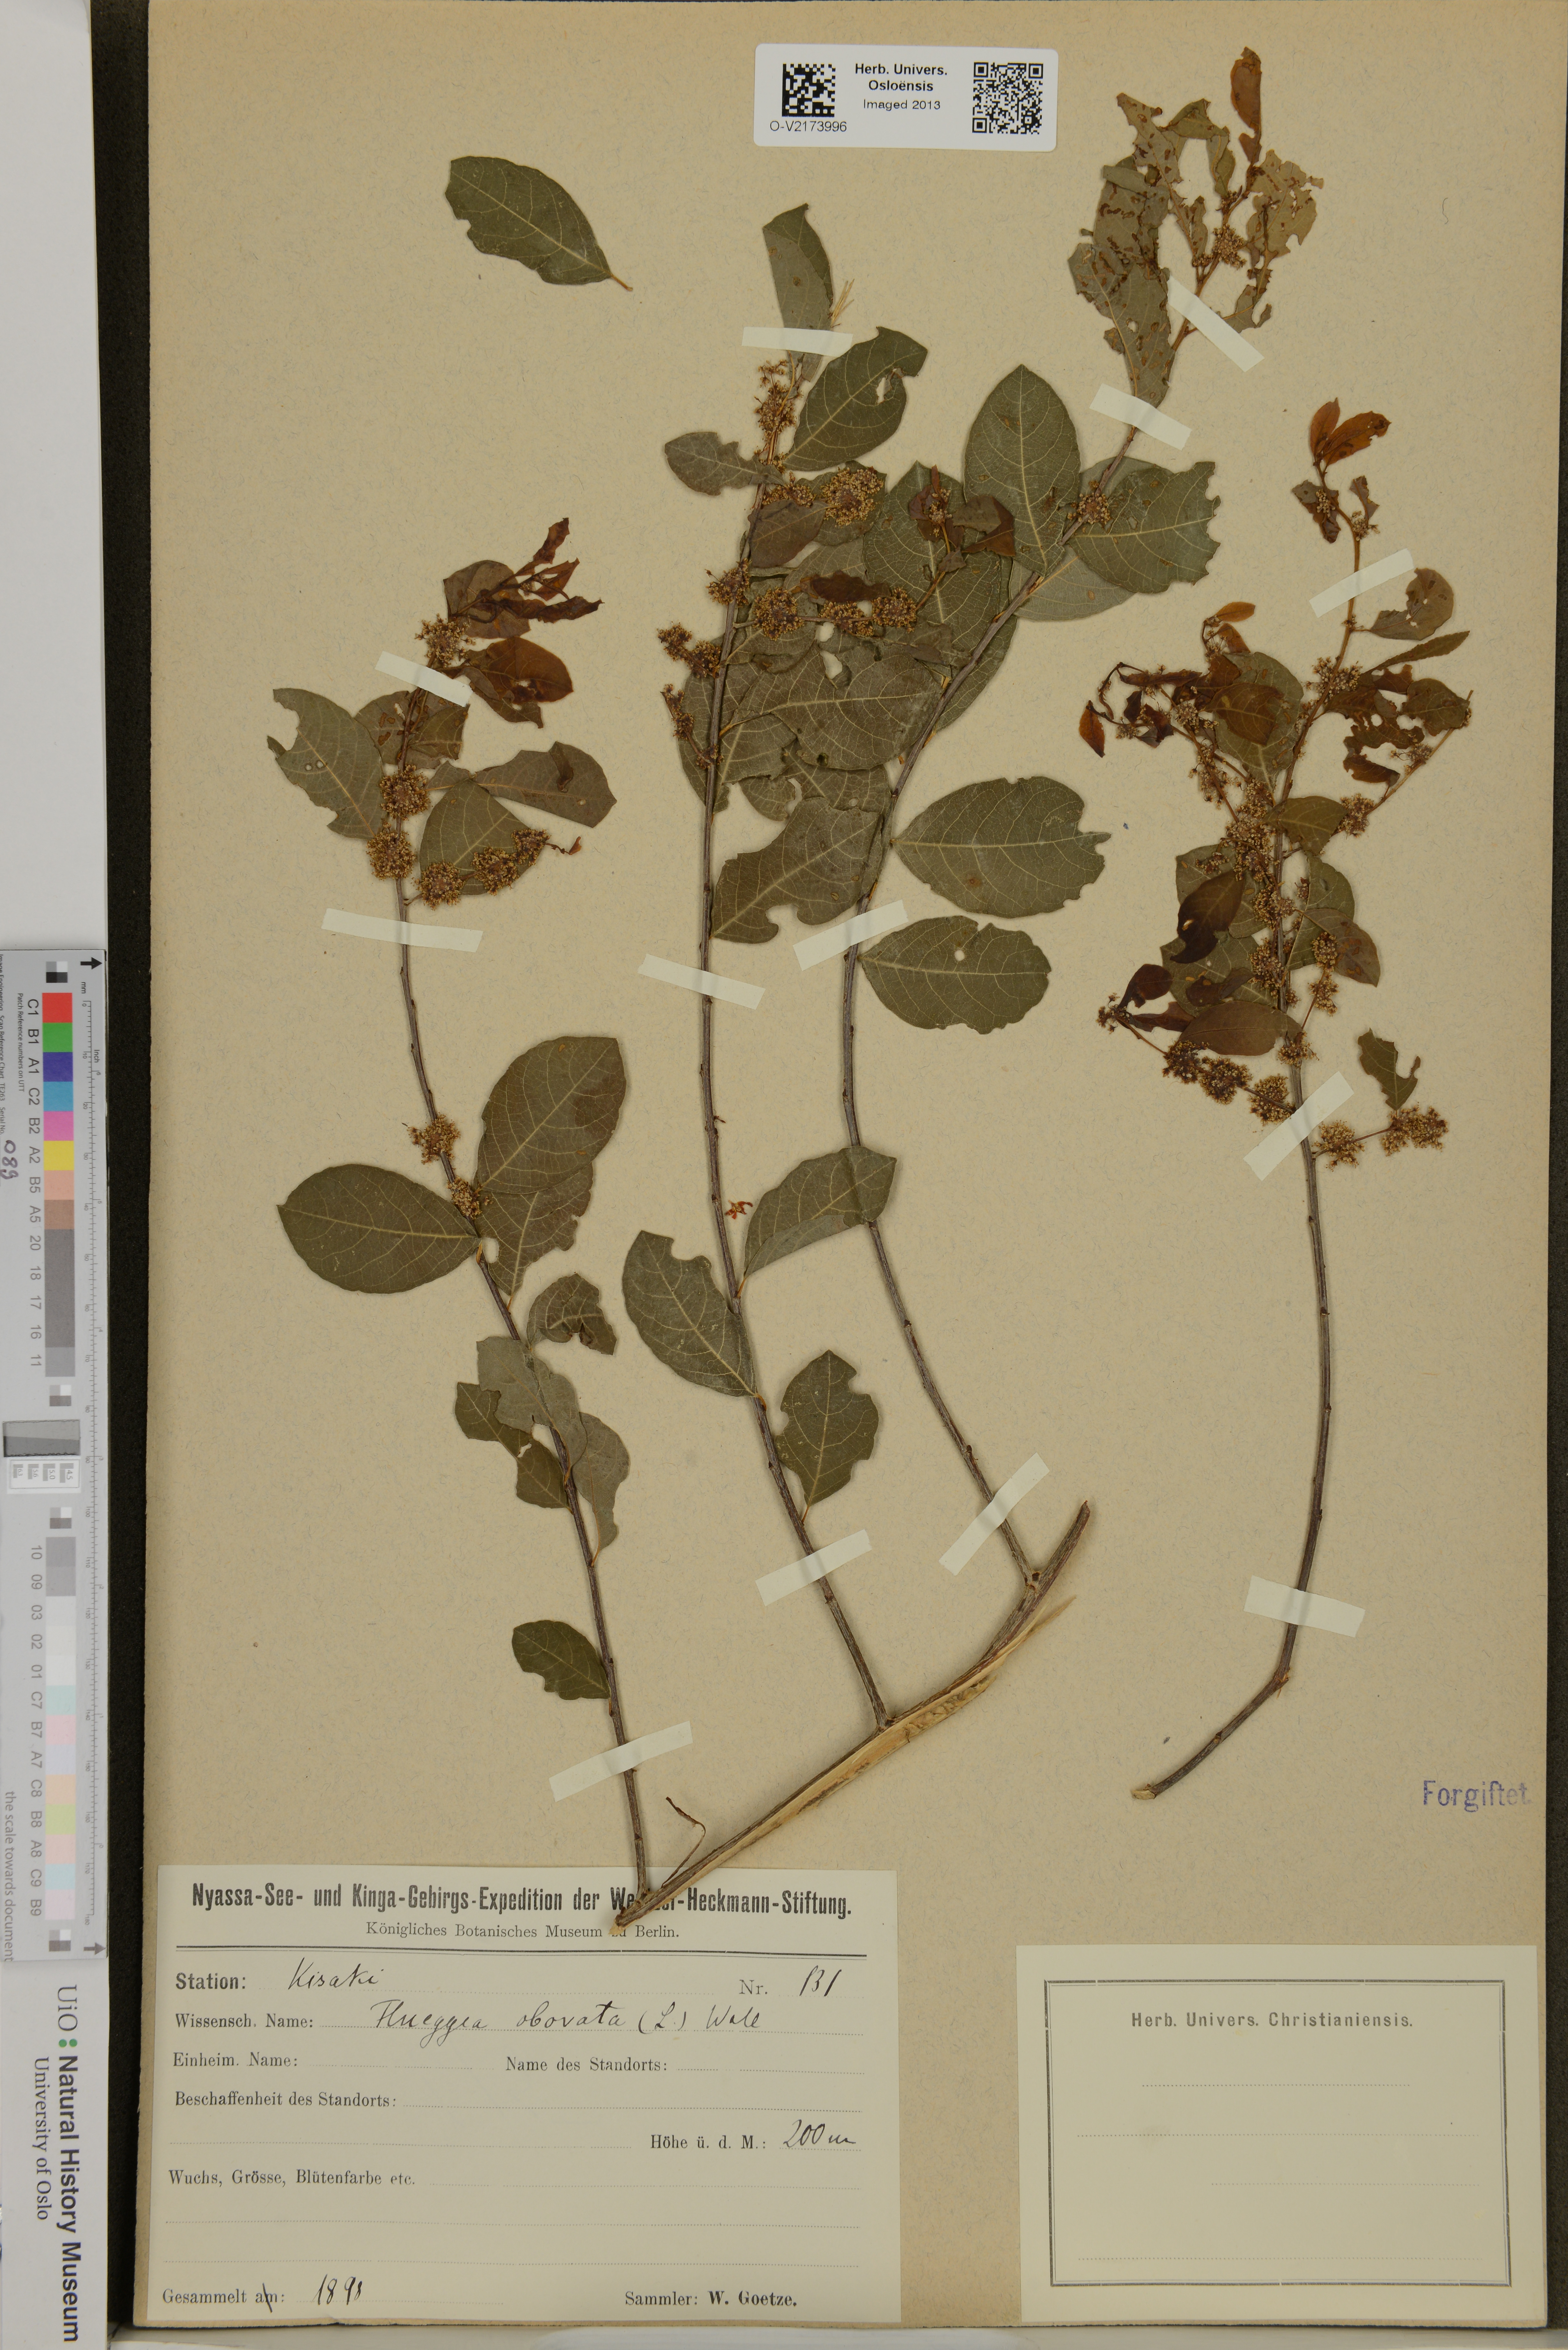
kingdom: Plantae
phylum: Tracheophyta
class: Magnoliopsida
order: Malpighiales
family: Phyllanthaceae
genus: Flueggea
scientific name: Flueggea obovata
